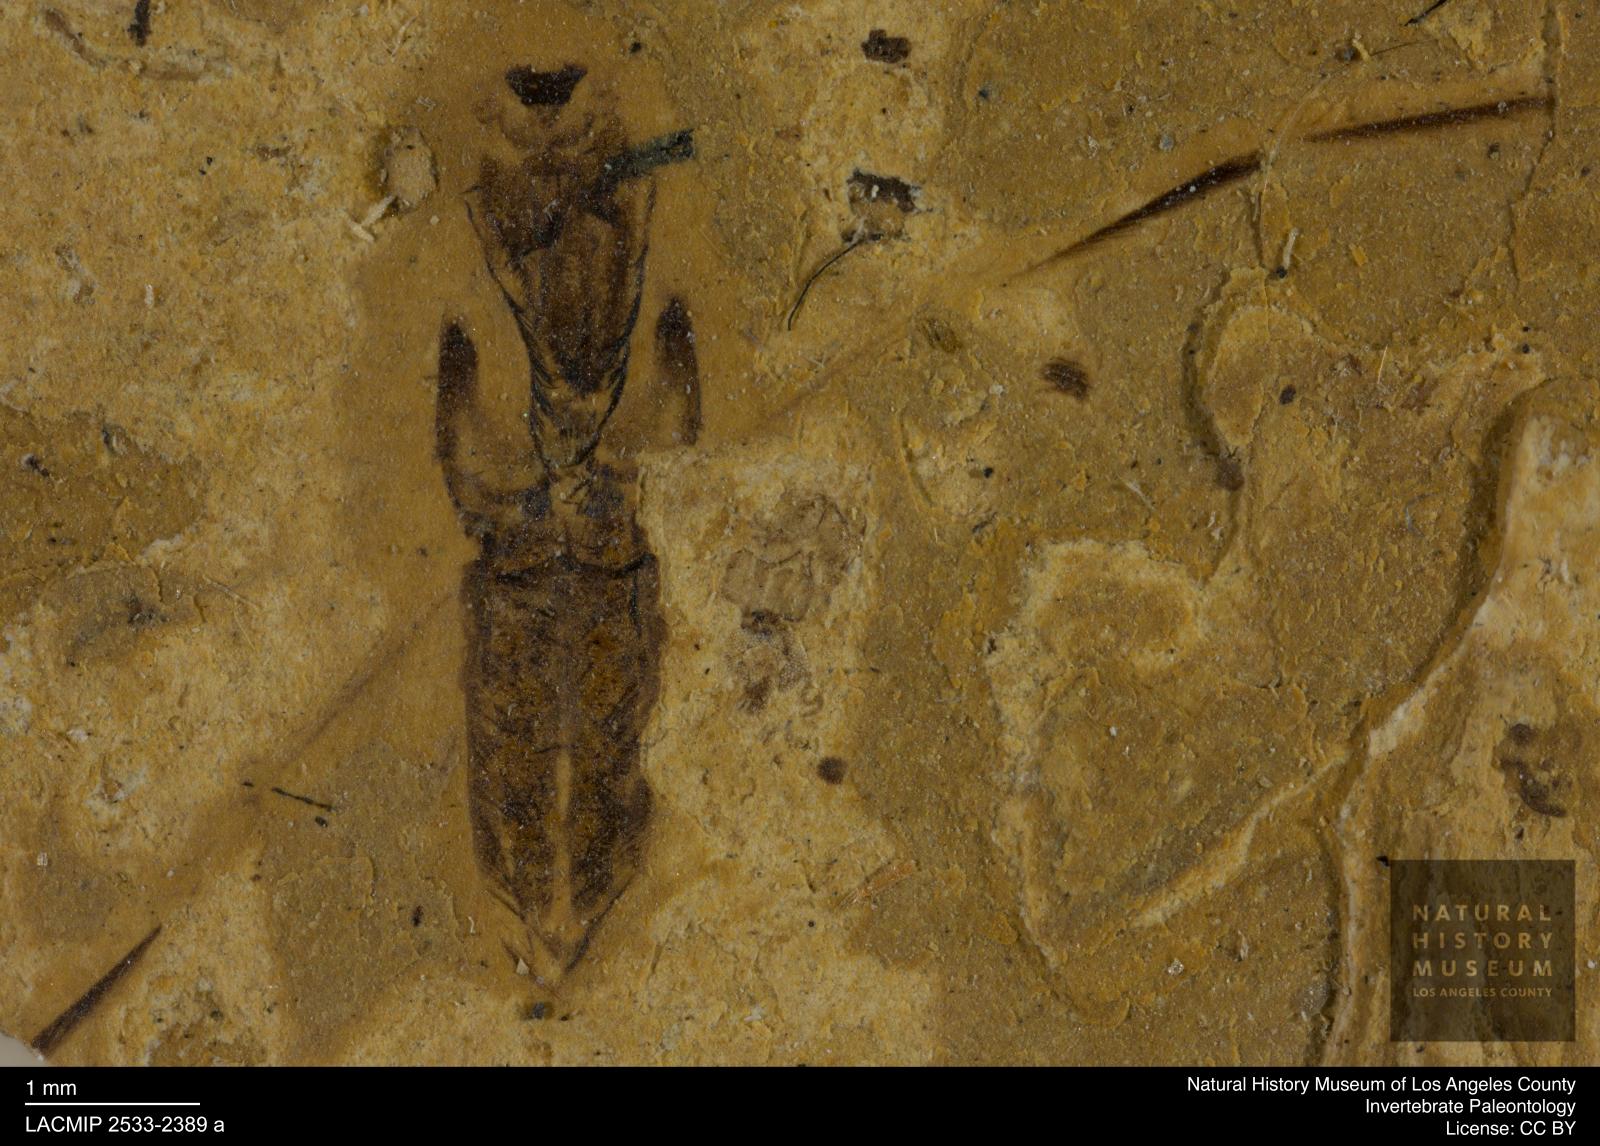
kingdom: Animalia
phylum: Arthropoda
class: Insecta
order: Hemiptera
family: Notonectidae
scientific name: Notonectidae
